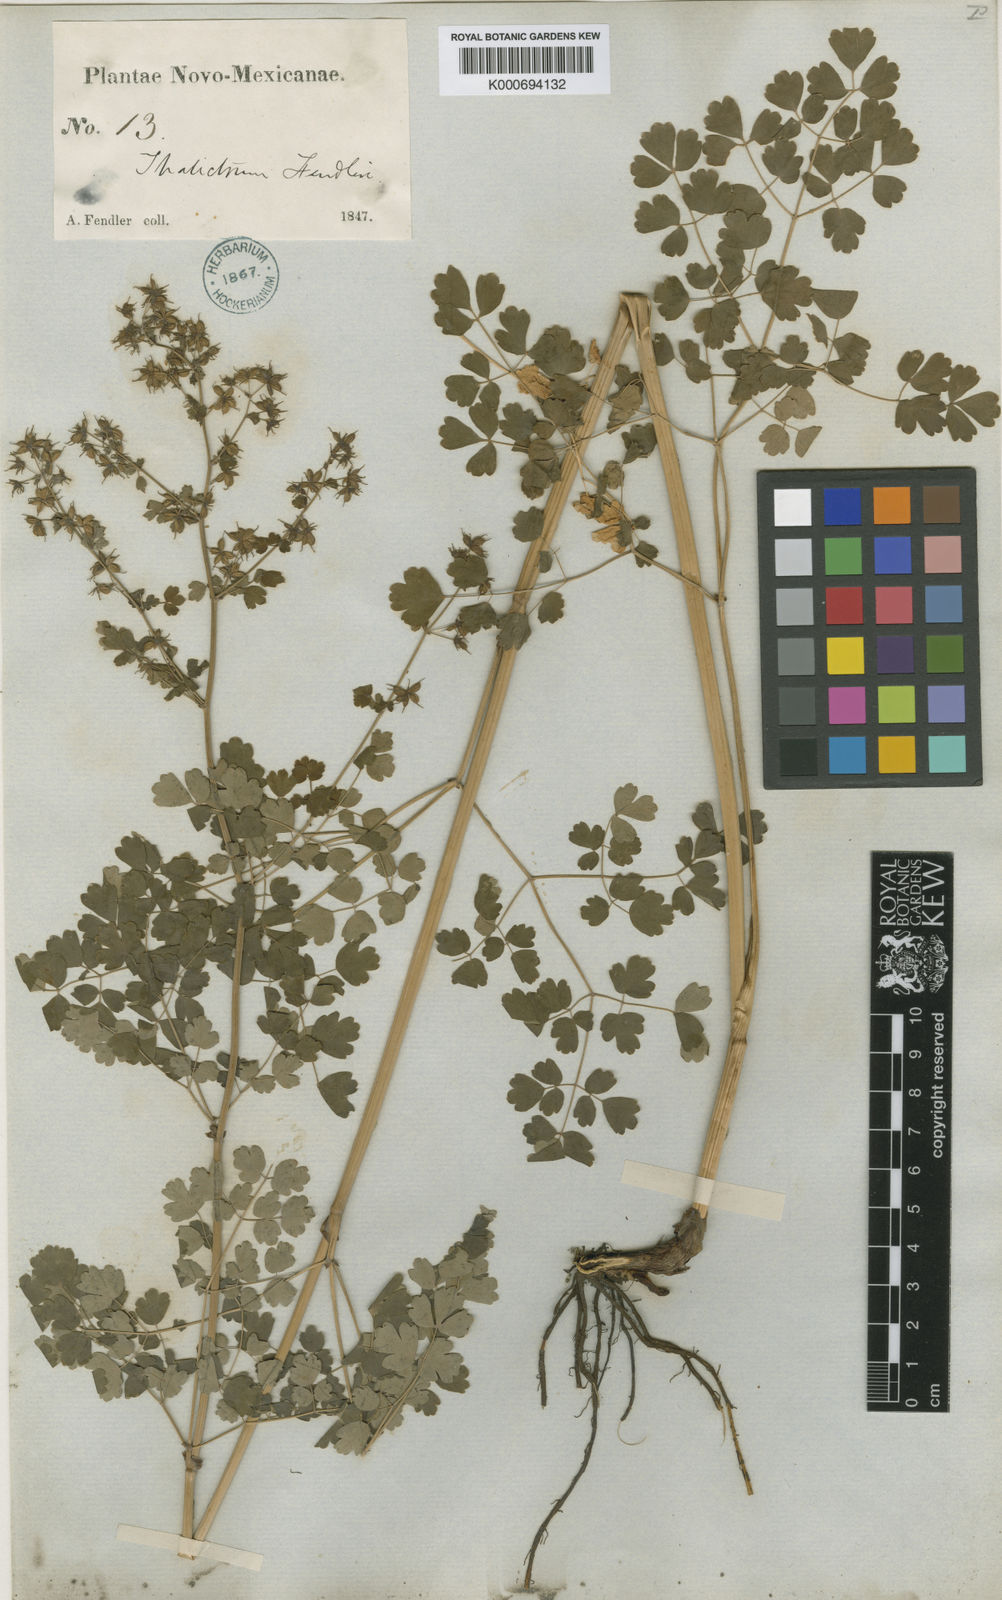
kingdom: Plantae
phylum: Tracheophyta
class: Magnoliopsida
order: Ranunculales
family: Ranunculaceae
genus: Thalictrum
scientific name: Thalictrum fendleri
